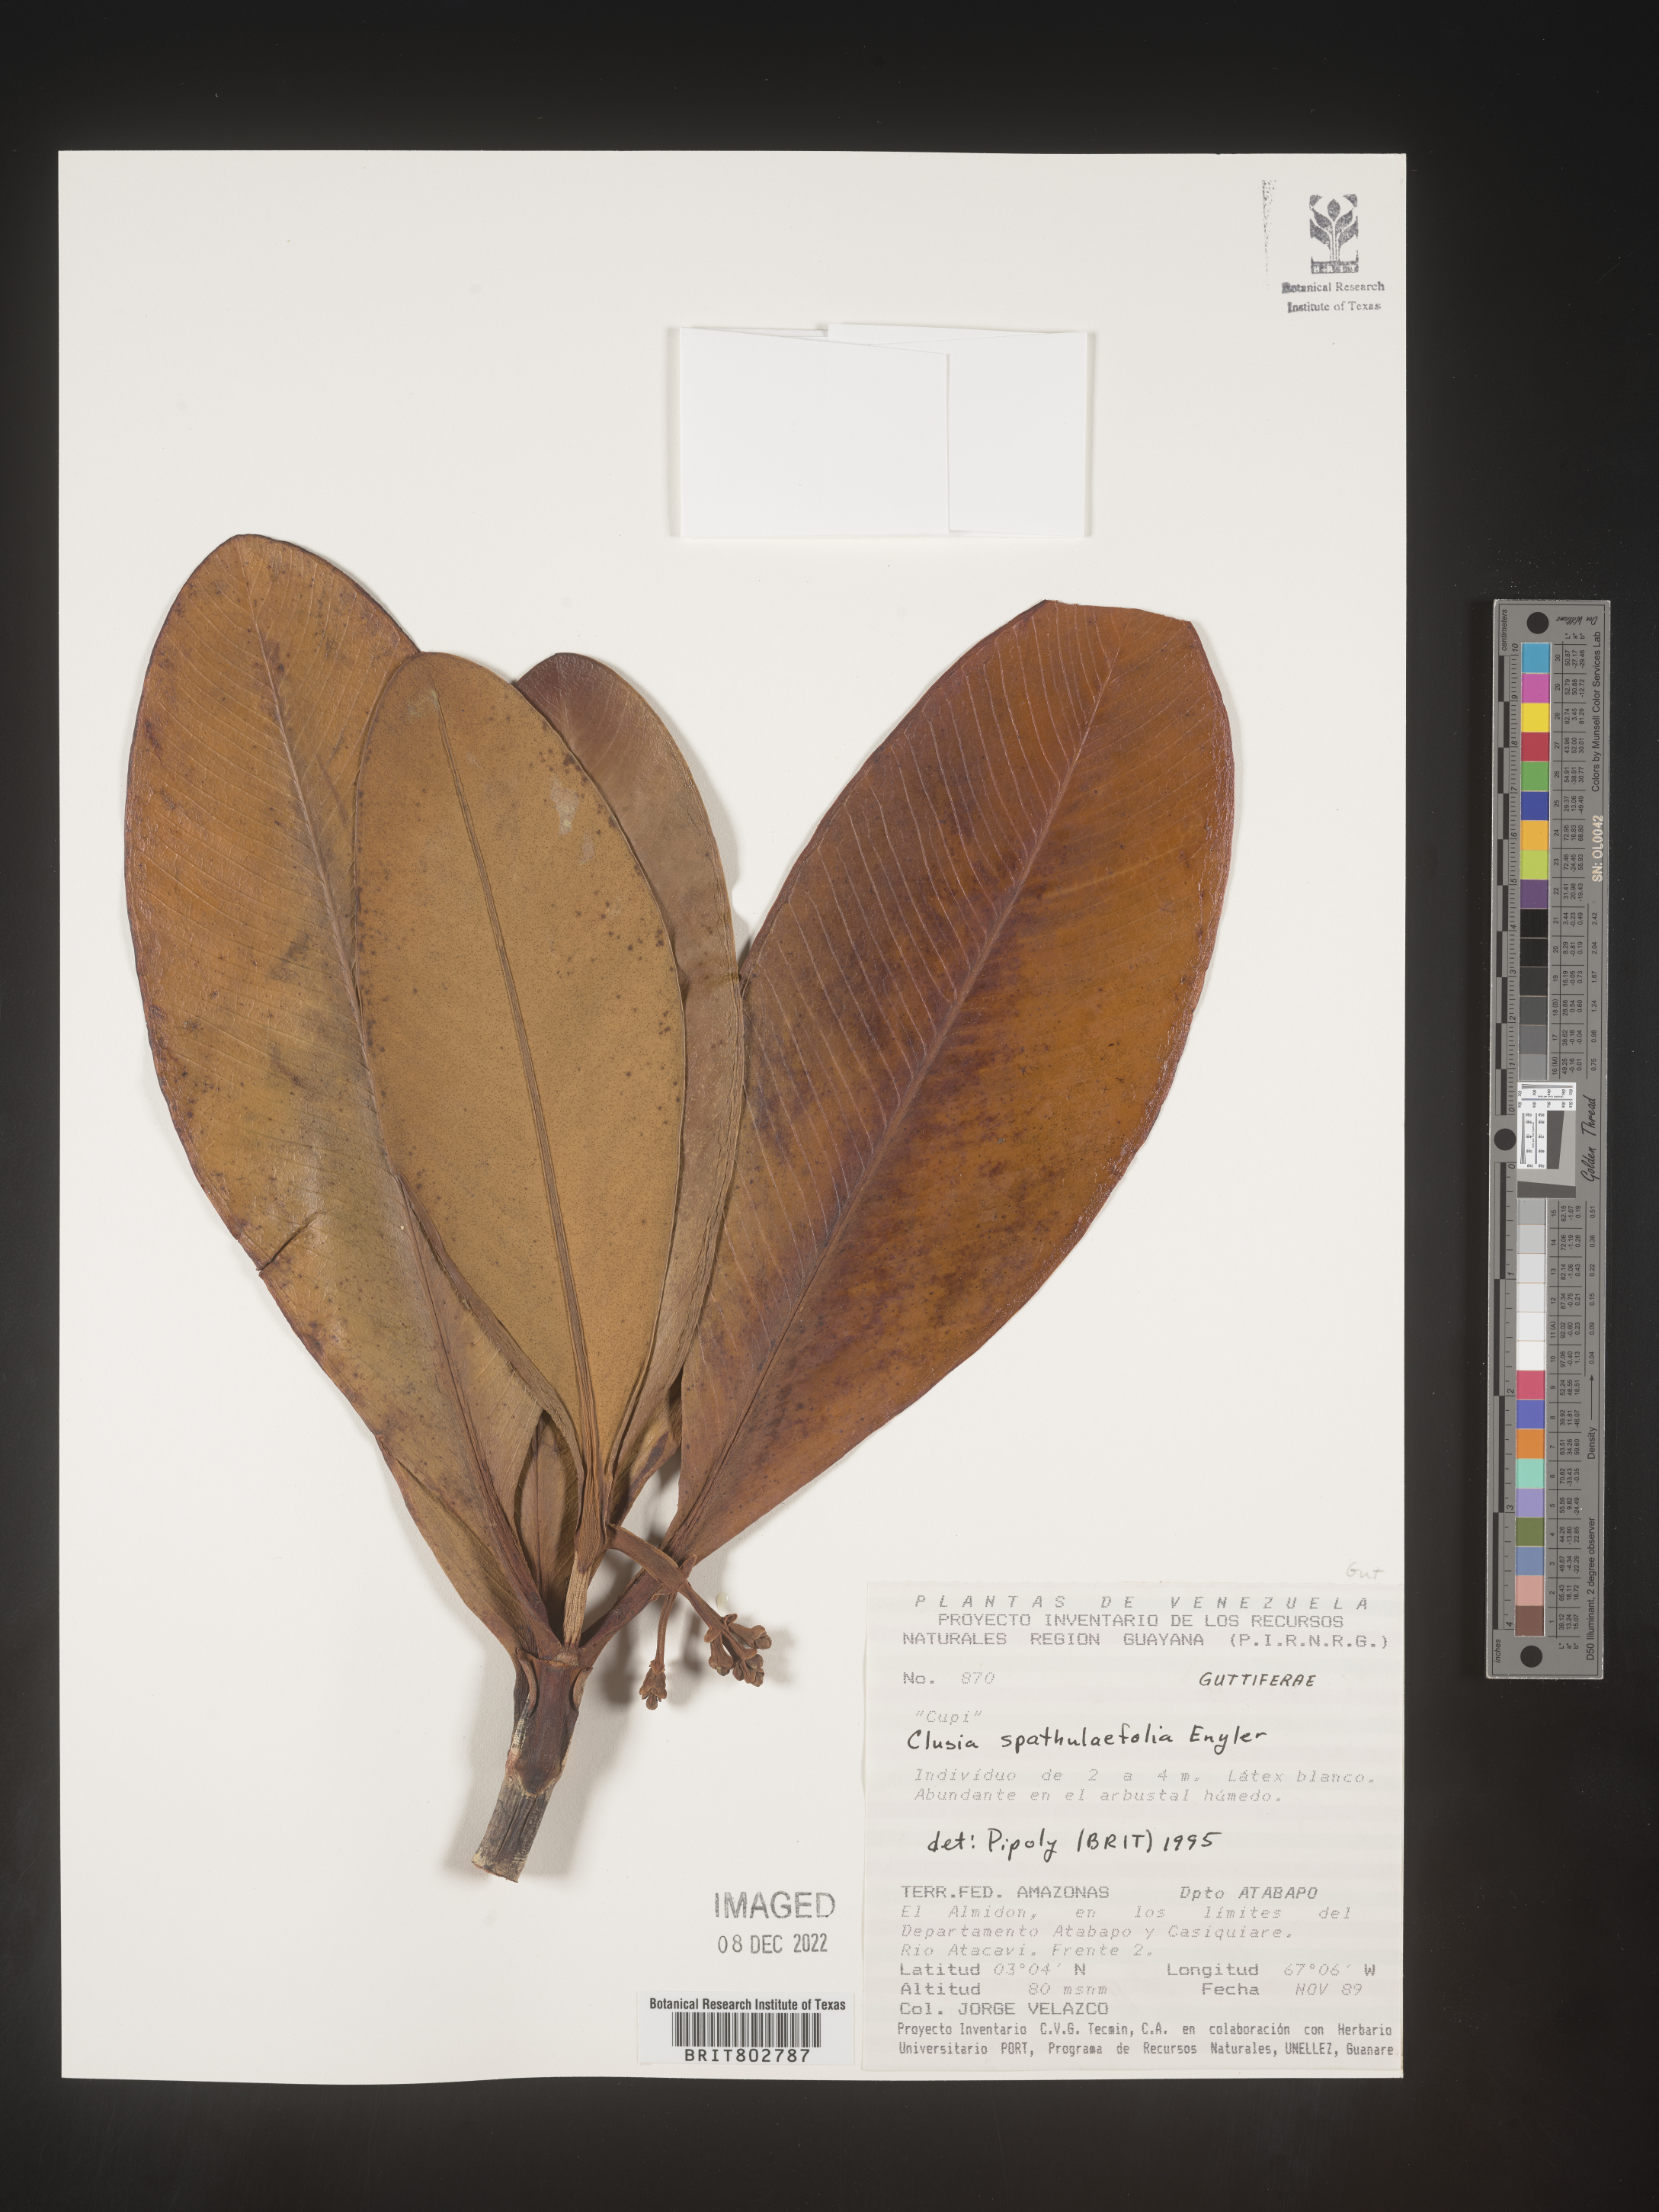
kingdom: Plantae
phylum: Tracheophyta
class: Magnoliopsida
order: Malpighiales
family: Clusiaceae
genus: Clusia
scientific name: Clusia spathulifolia
